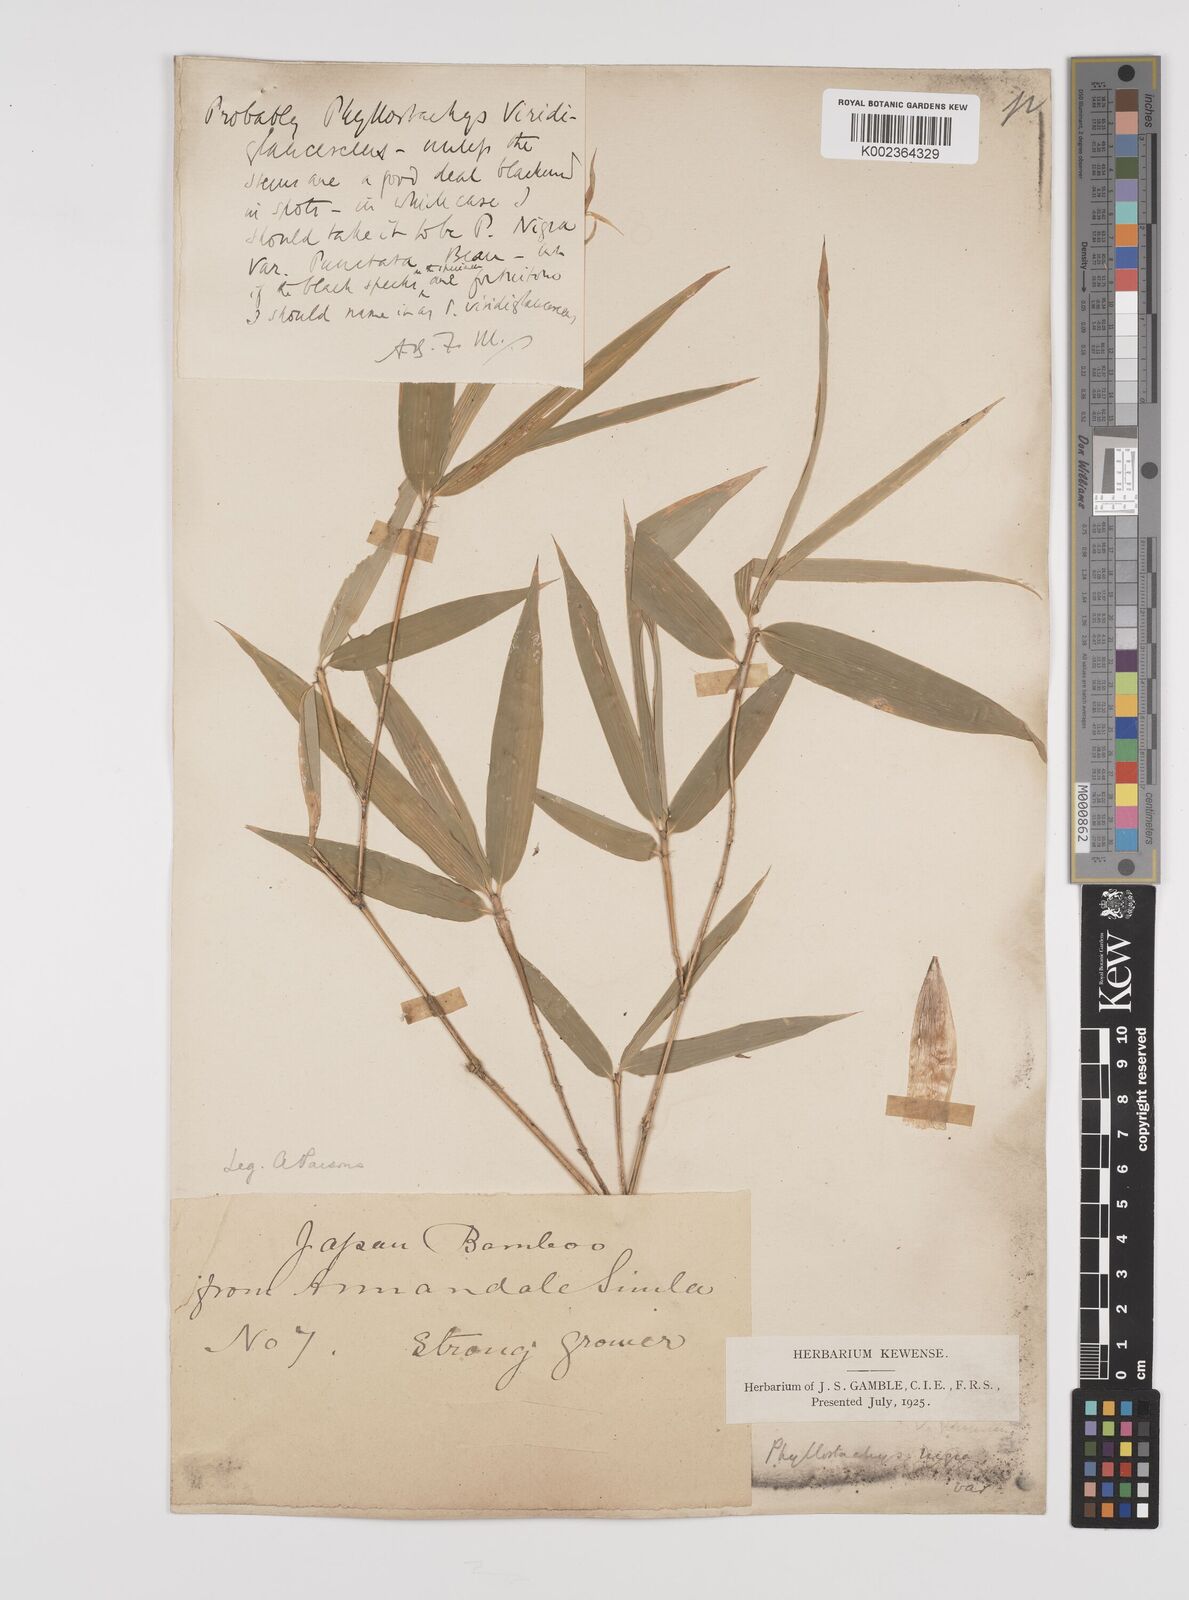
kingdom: Plantae
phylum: Tracheophyta
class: Liliopsida
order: Poales
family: Poaceae
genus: Phyllostachys
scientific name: Phyllostachys reticulata
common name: Bamboo
